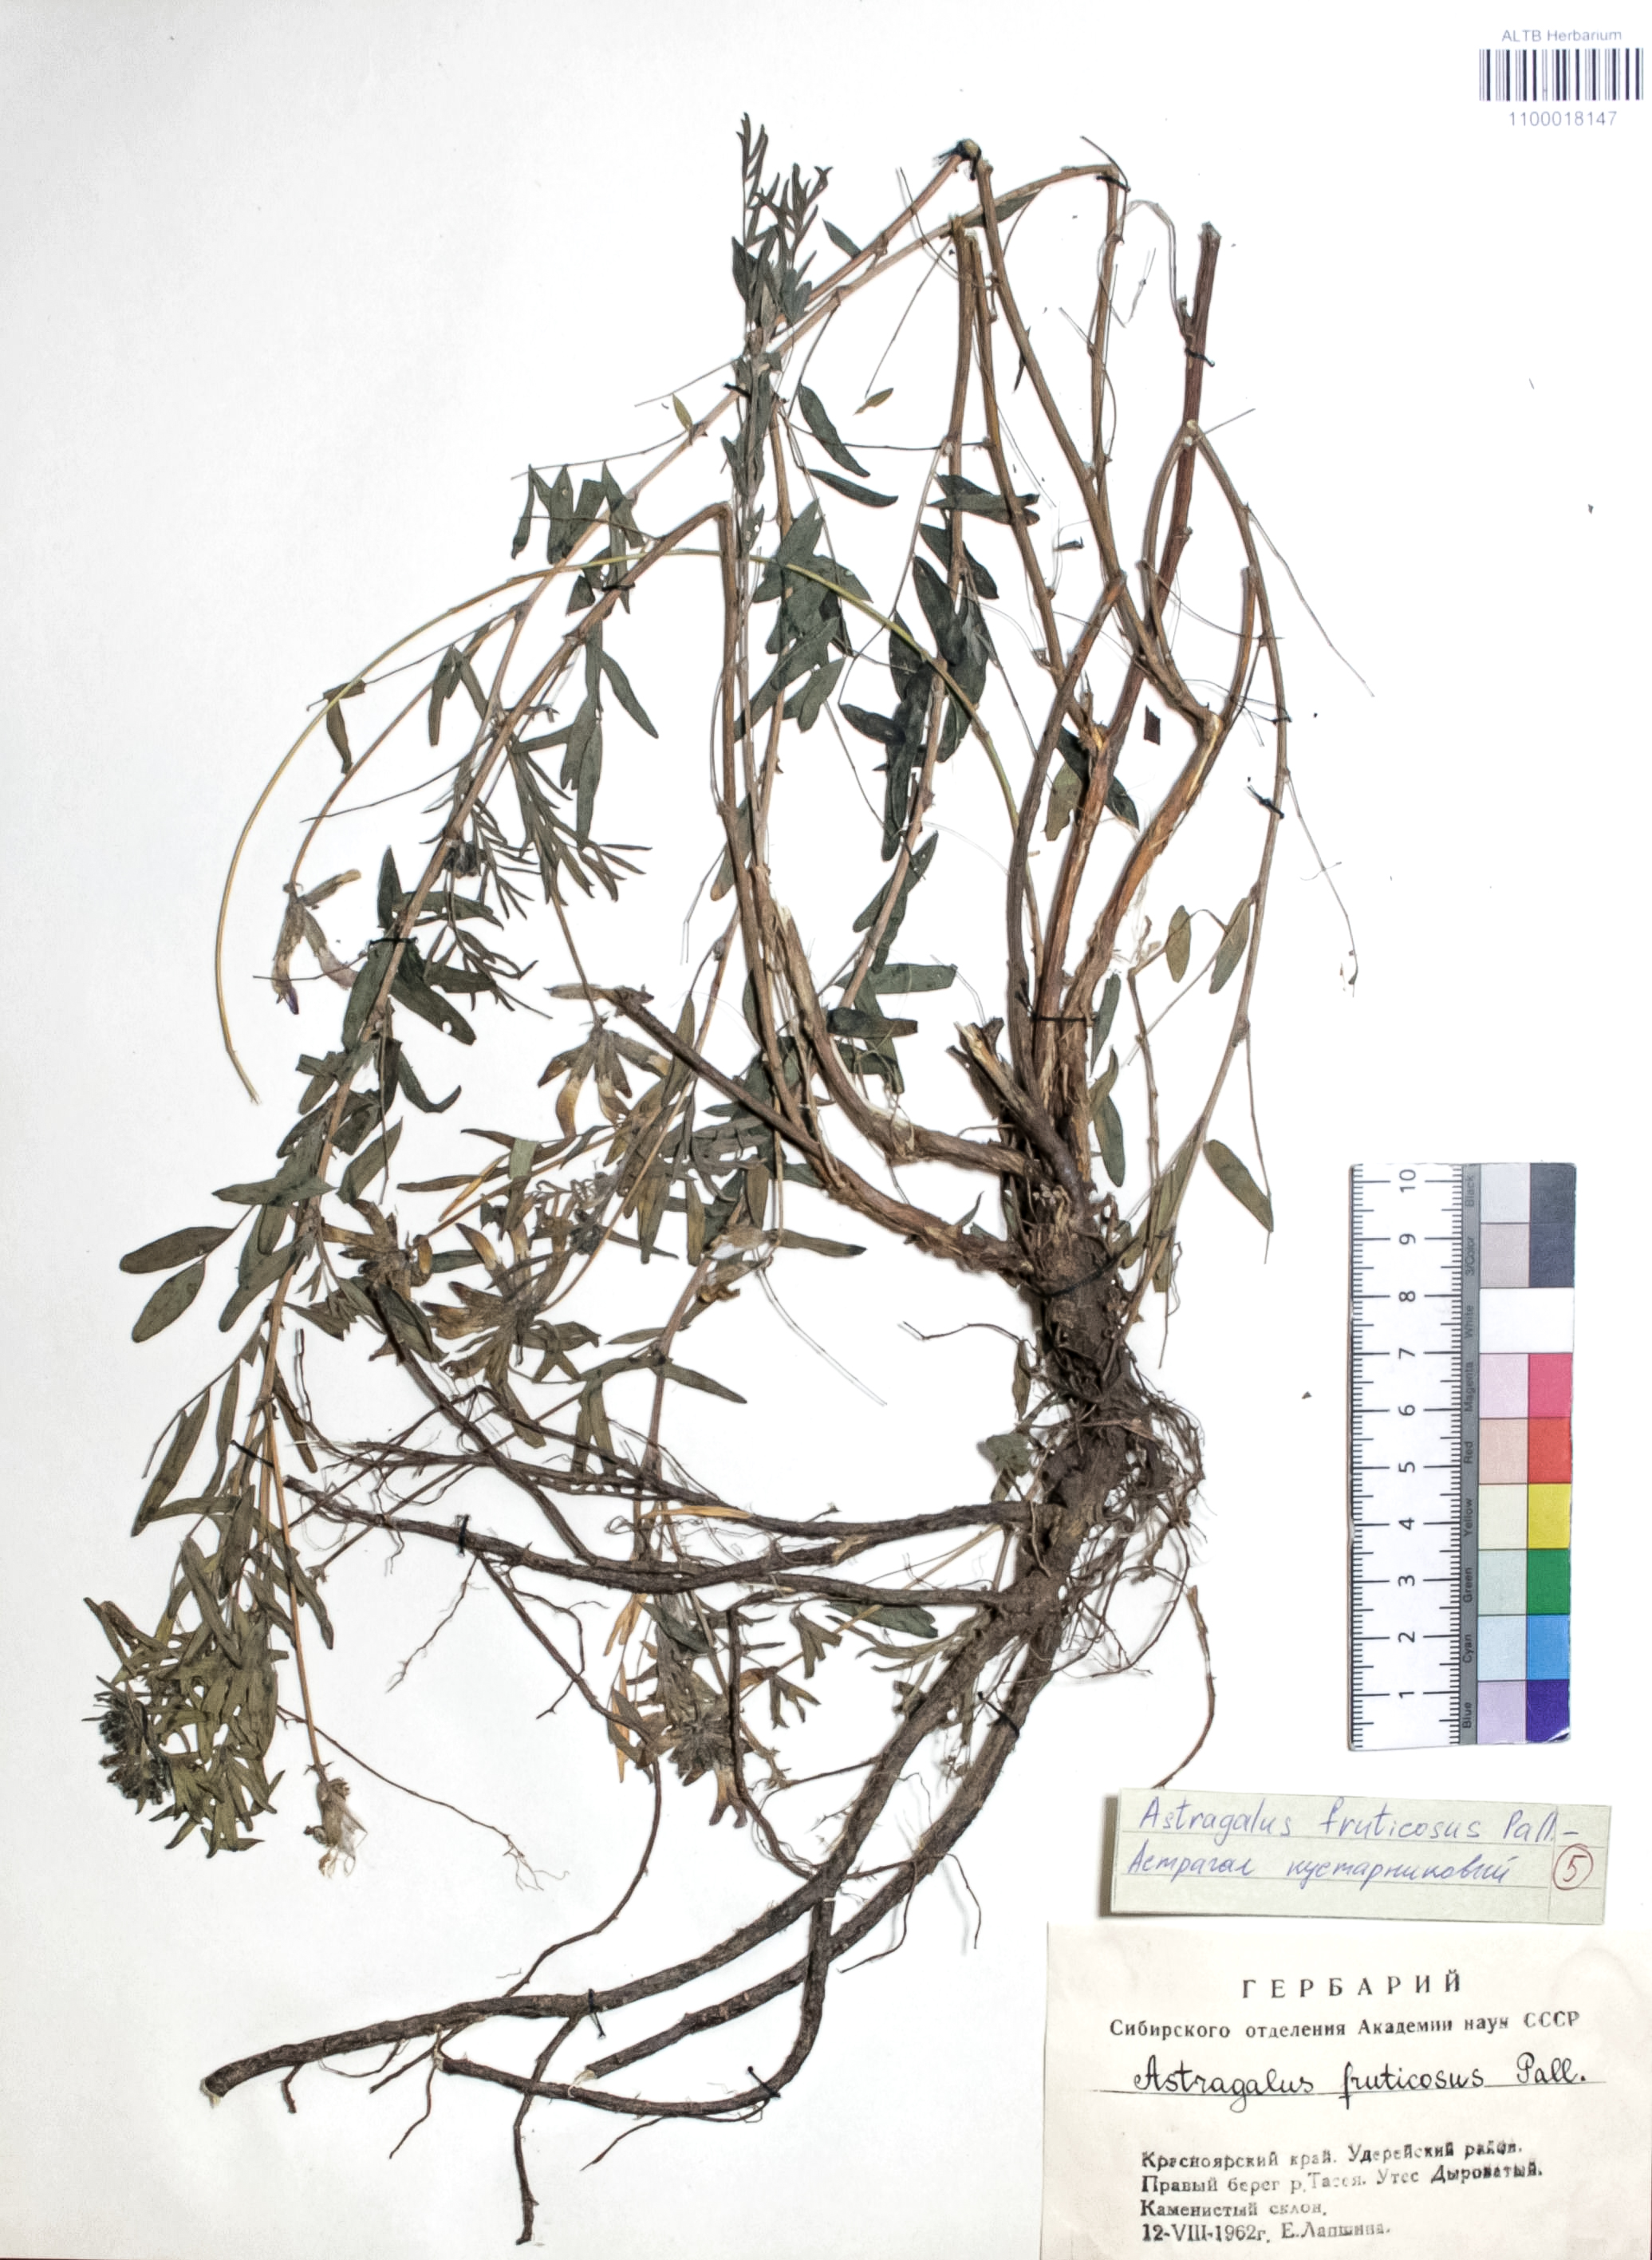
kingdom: Plantae
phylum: Tracheophyta
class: Magnoliopsida
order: Fabales
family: Fabaceae
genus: Astragalus
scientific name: Astragalus syriacus
